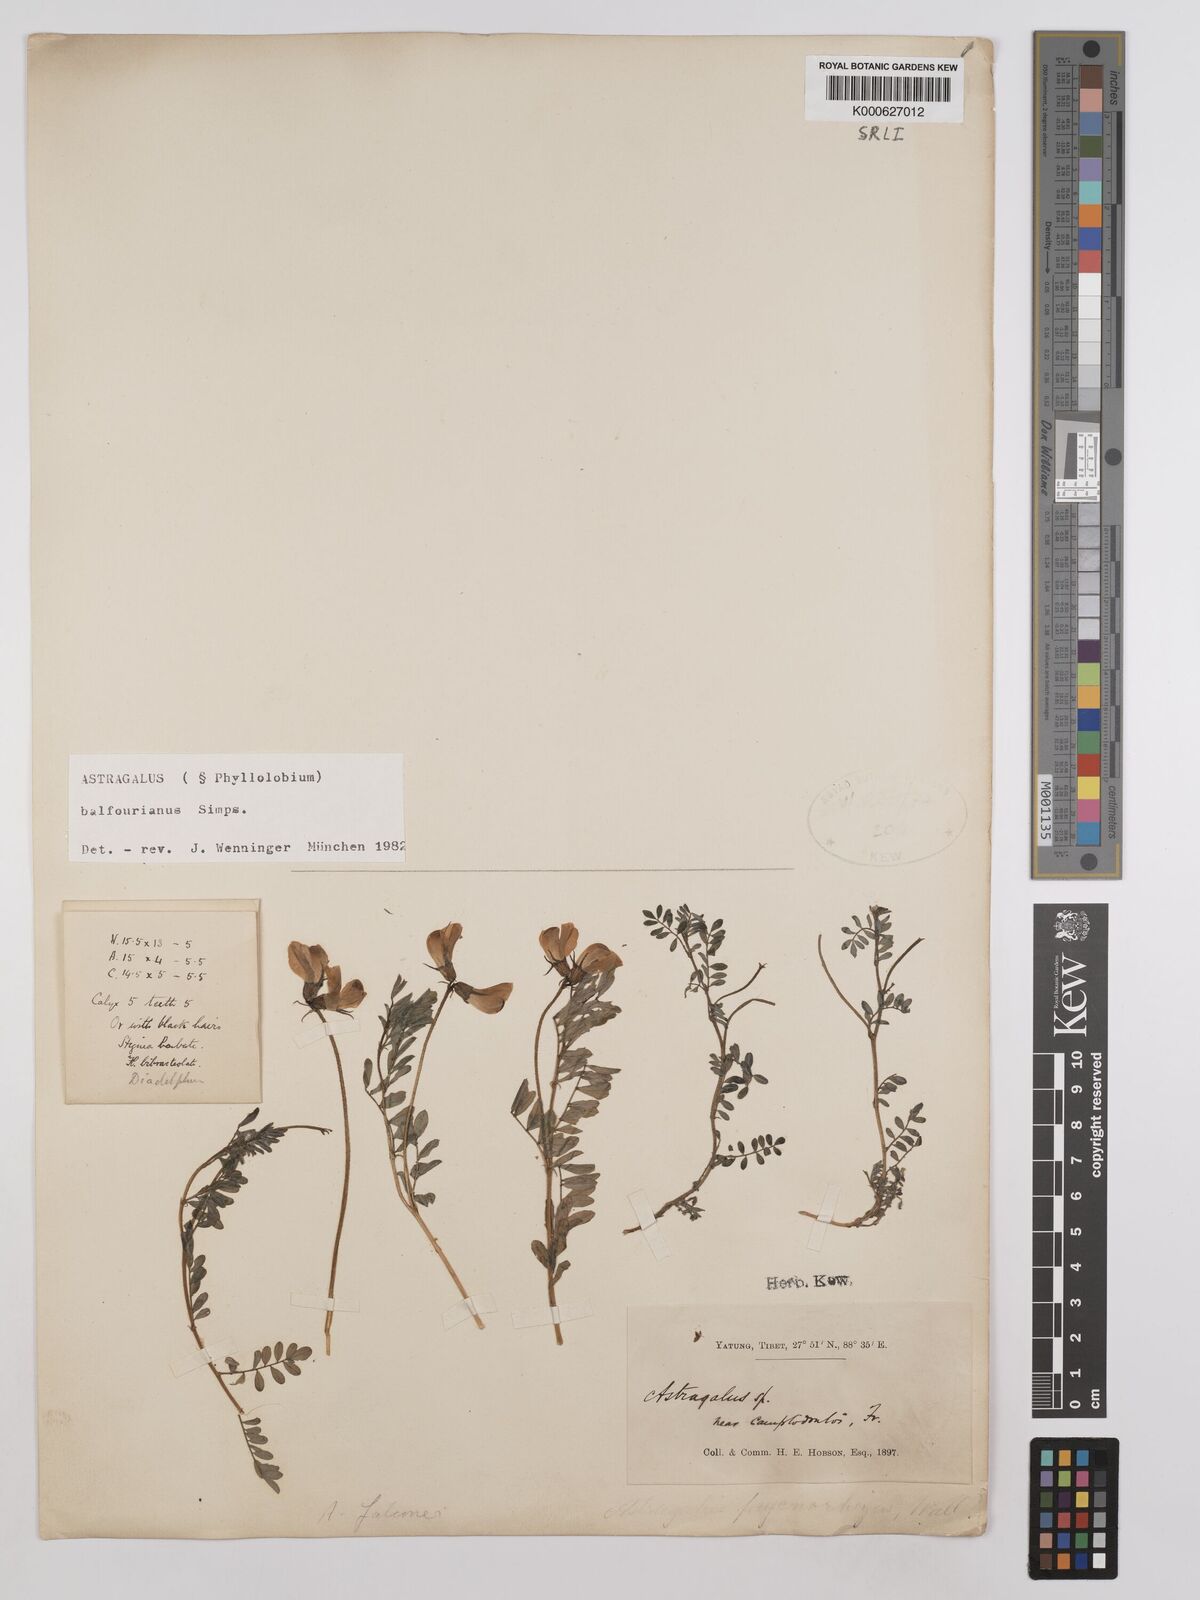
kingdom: Plantae
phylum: Tracheophyta
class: Magnoliopsida
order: Fabales
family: Fabaceae
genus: Phyllolobium
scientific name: Phyllolobium balfourianum
